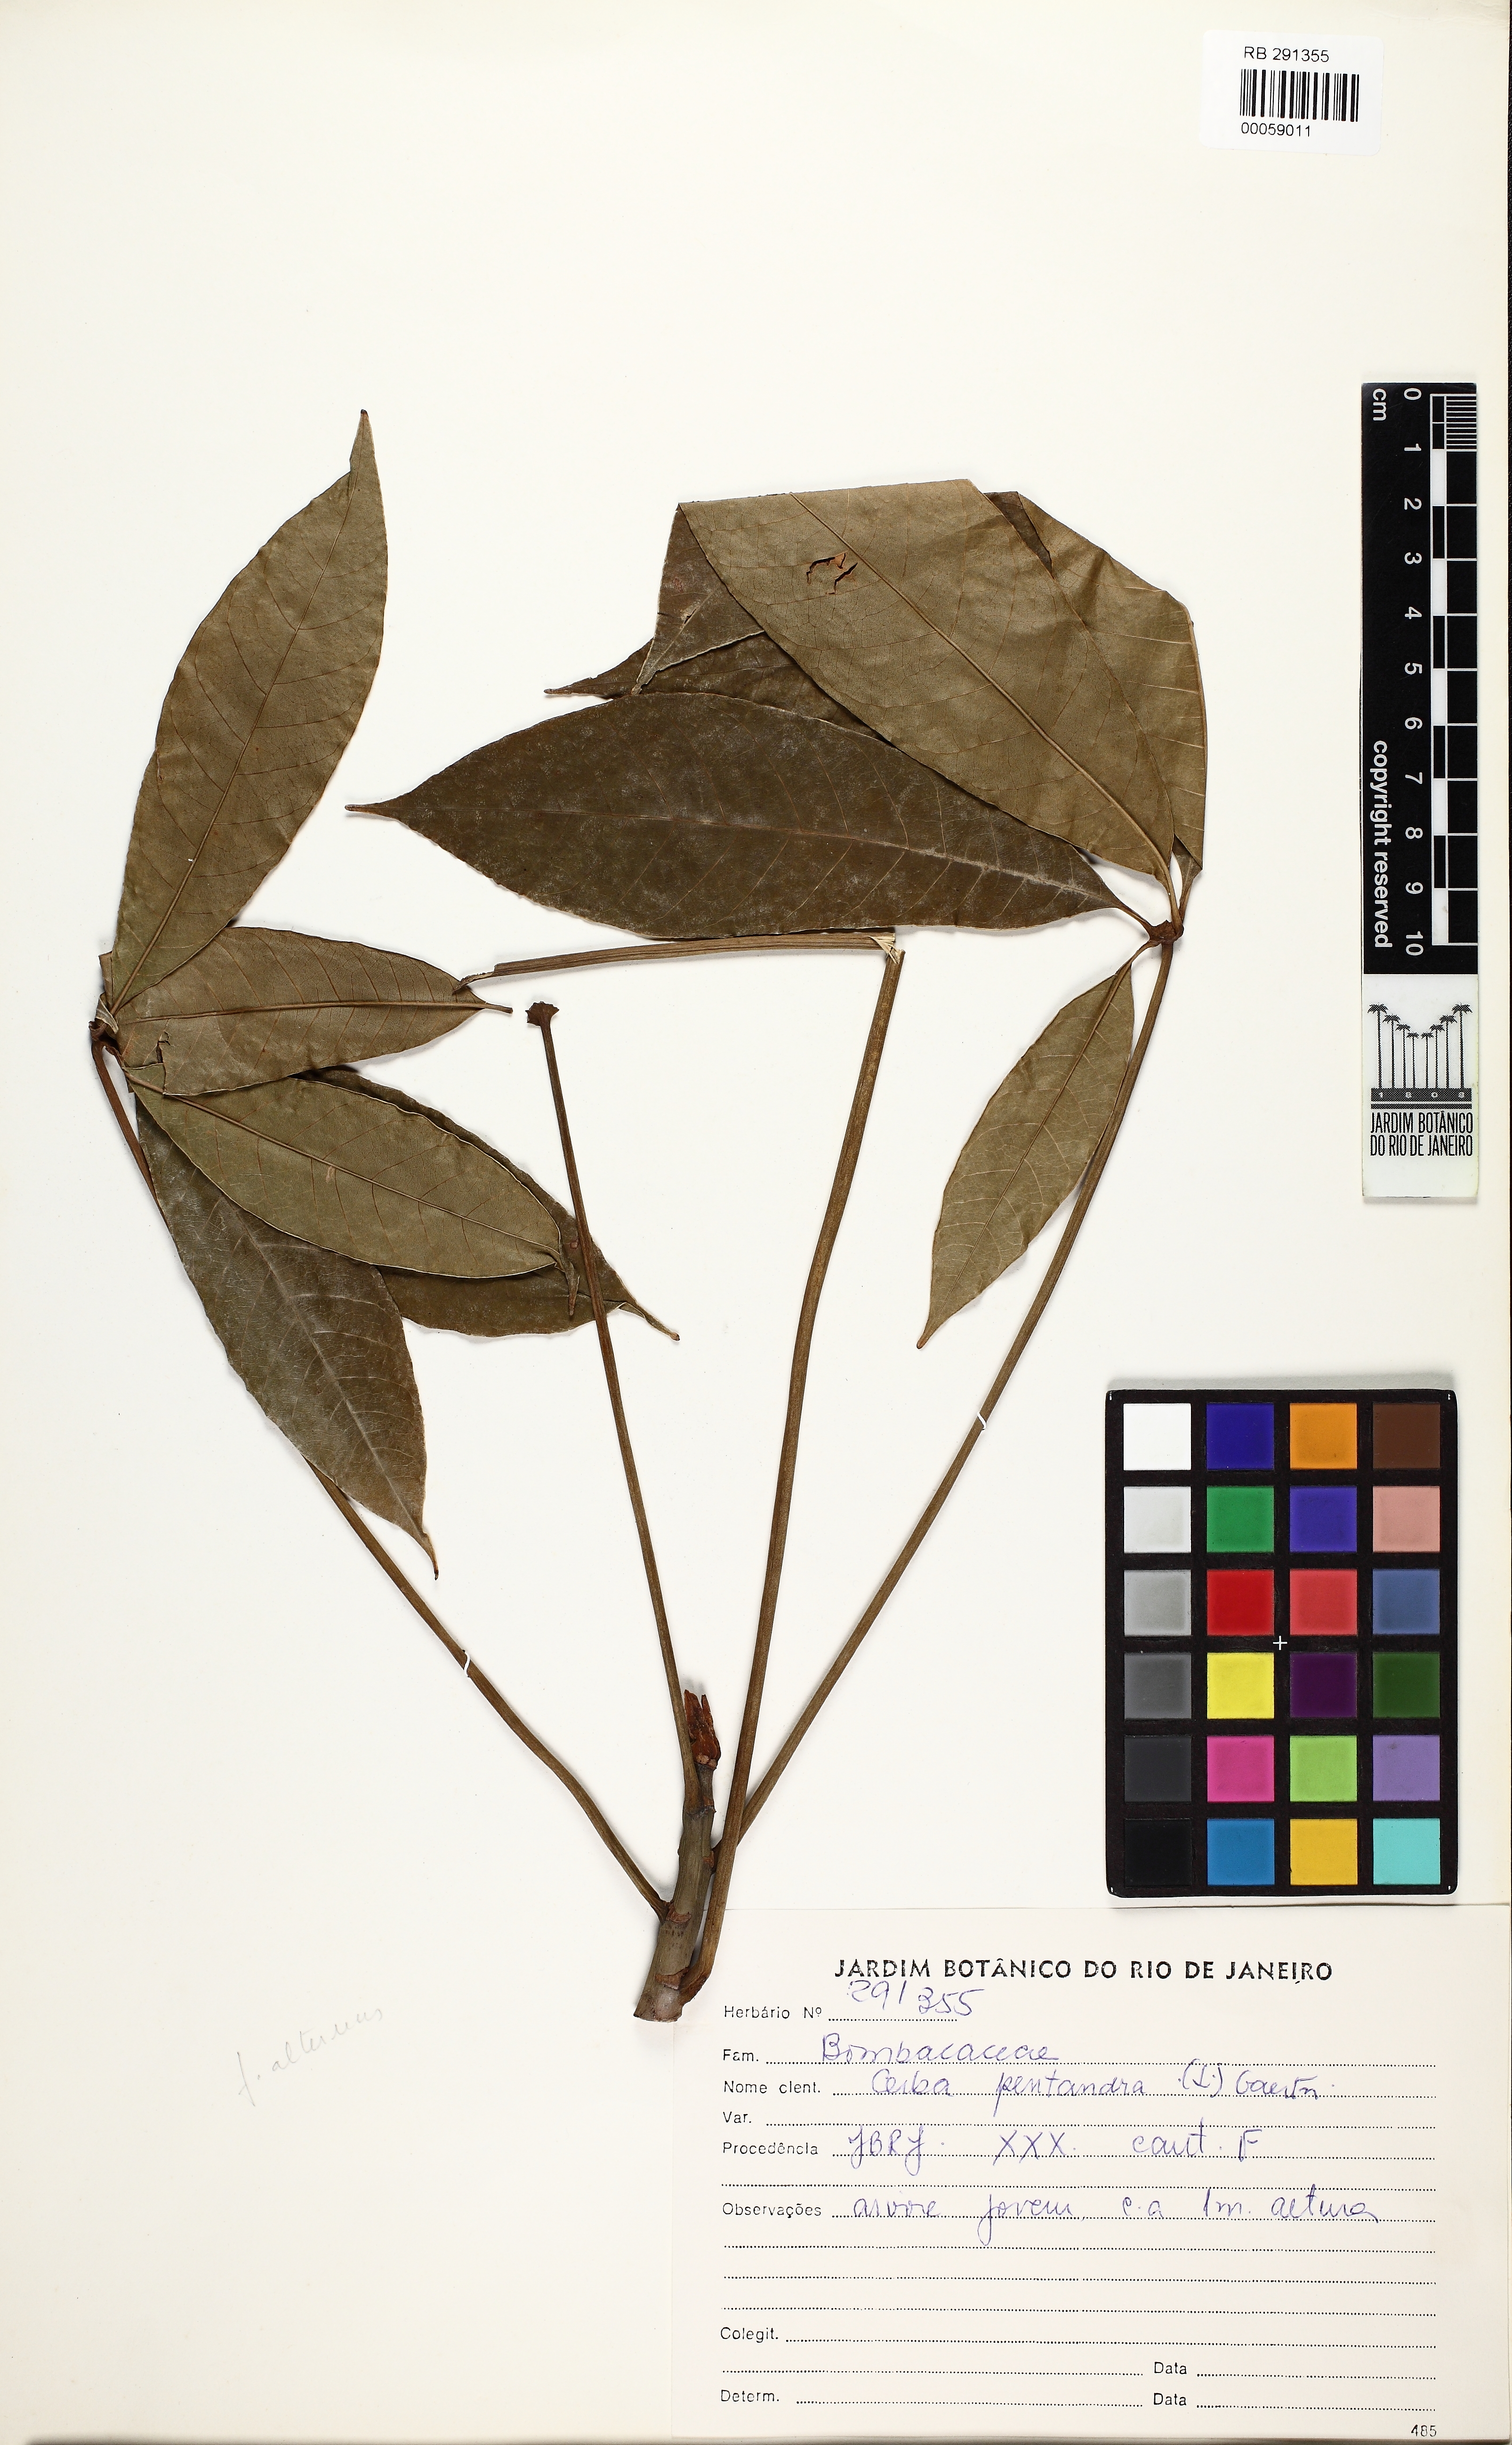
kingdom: Plantae
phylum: Tracheophyta
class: Magnoliopsida
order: Malvales
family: Malvaceae
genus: Ceiba
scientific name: Ceiba pentandra
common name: Kapok
